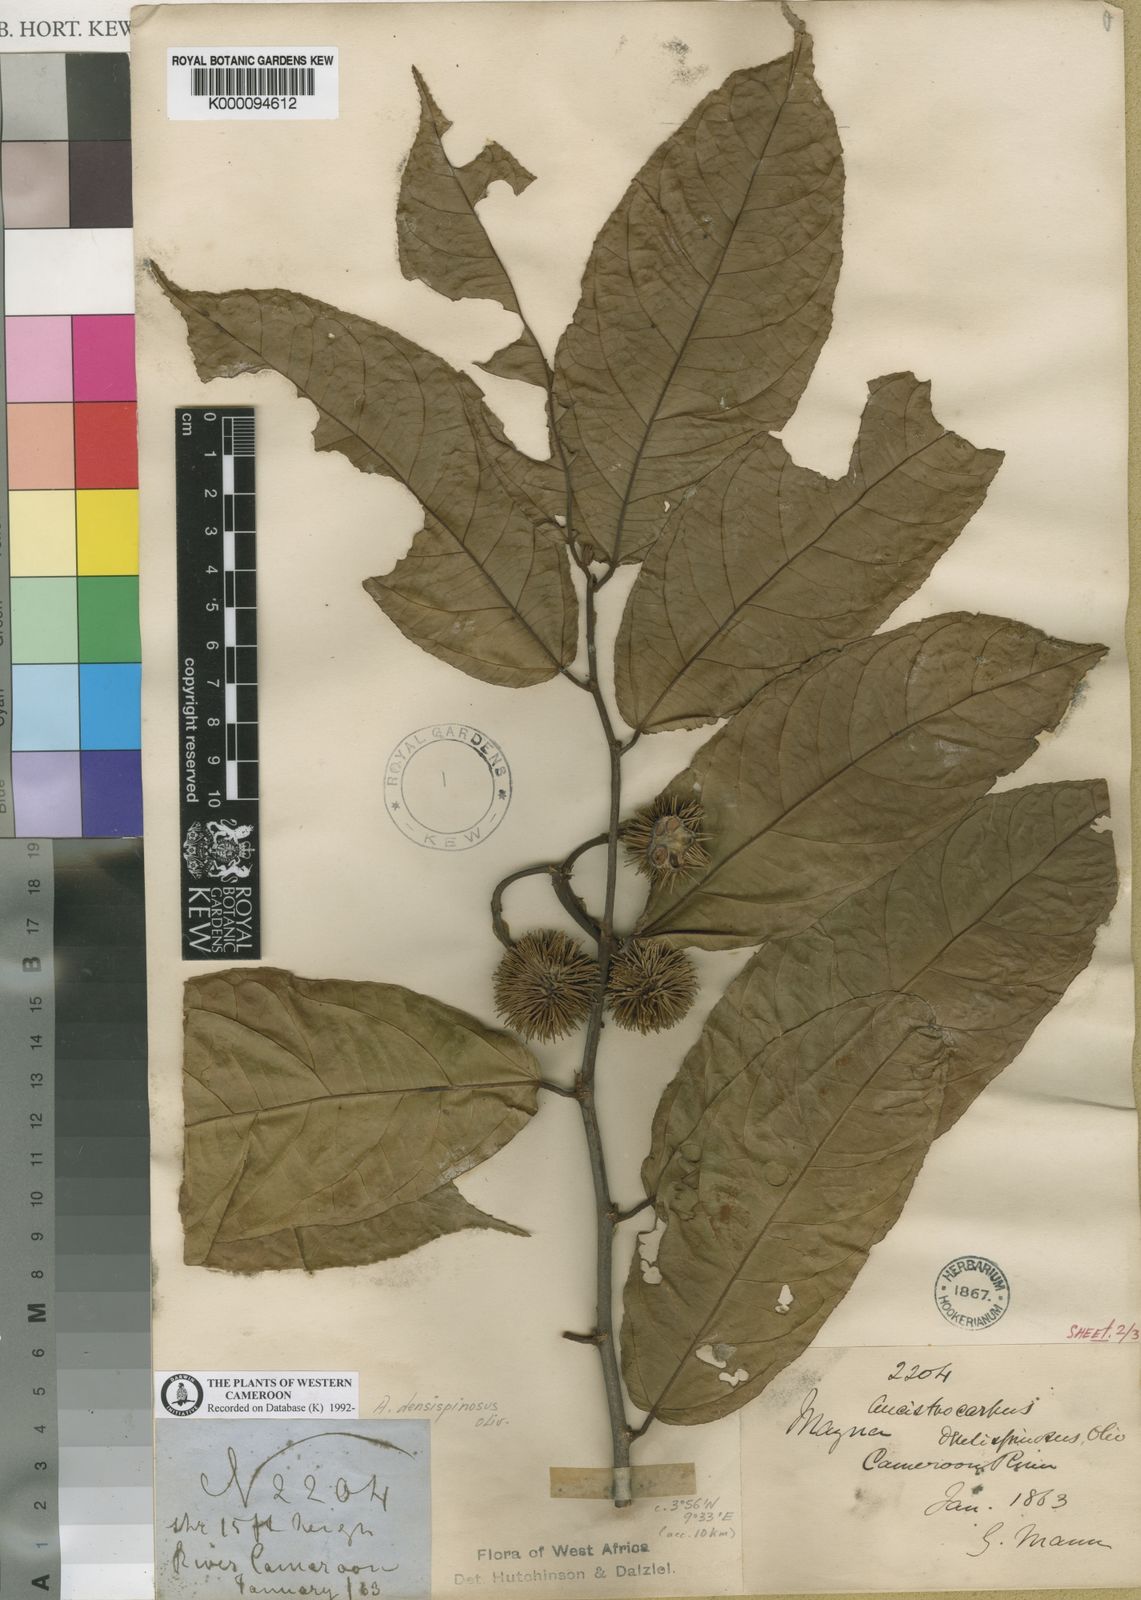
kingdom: Plantae
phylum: Tracheophyta
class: Magnoliopsida
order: Malvales
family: Malvaceae
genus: Ancistrocarpus
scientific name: Ancistrocarpus densispinosus
